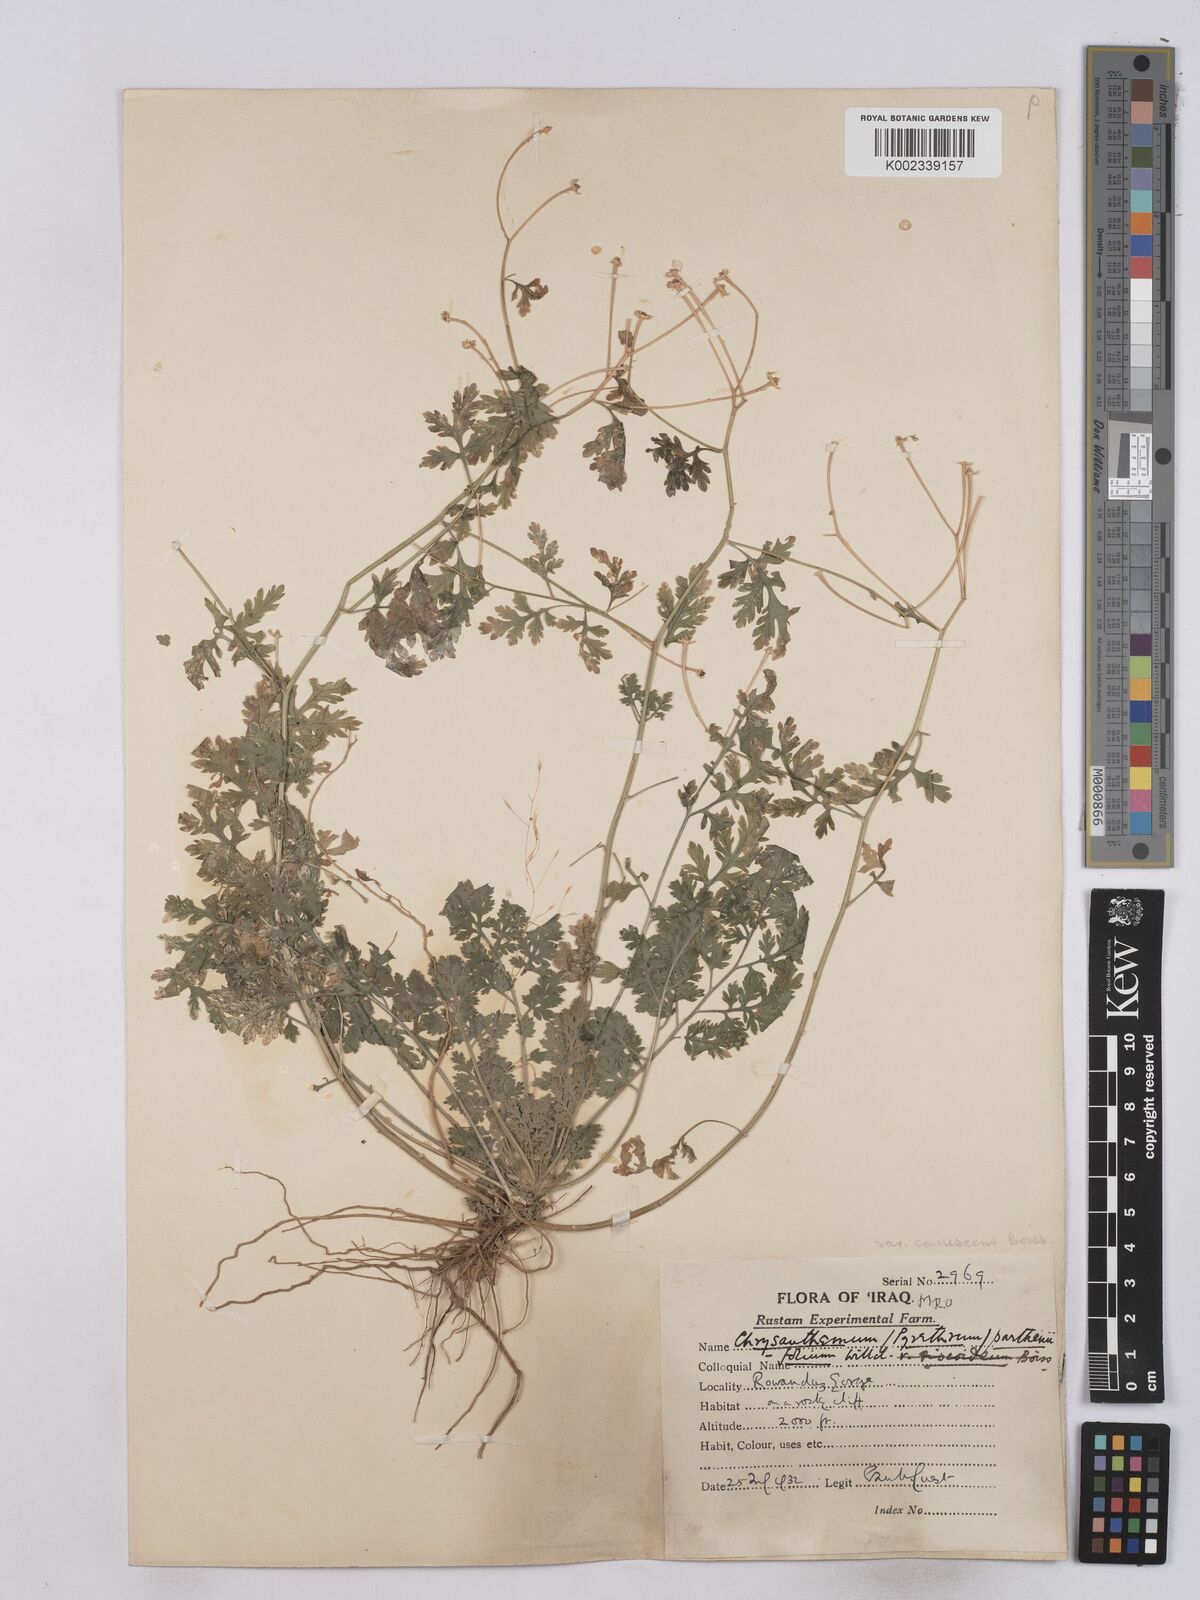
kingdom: Plantae
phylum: Tracheophyta
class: Magnoliopsida
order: Asterales
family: Asteraceae
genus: Tanacetum
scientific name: Tanacetum partheniifolium
